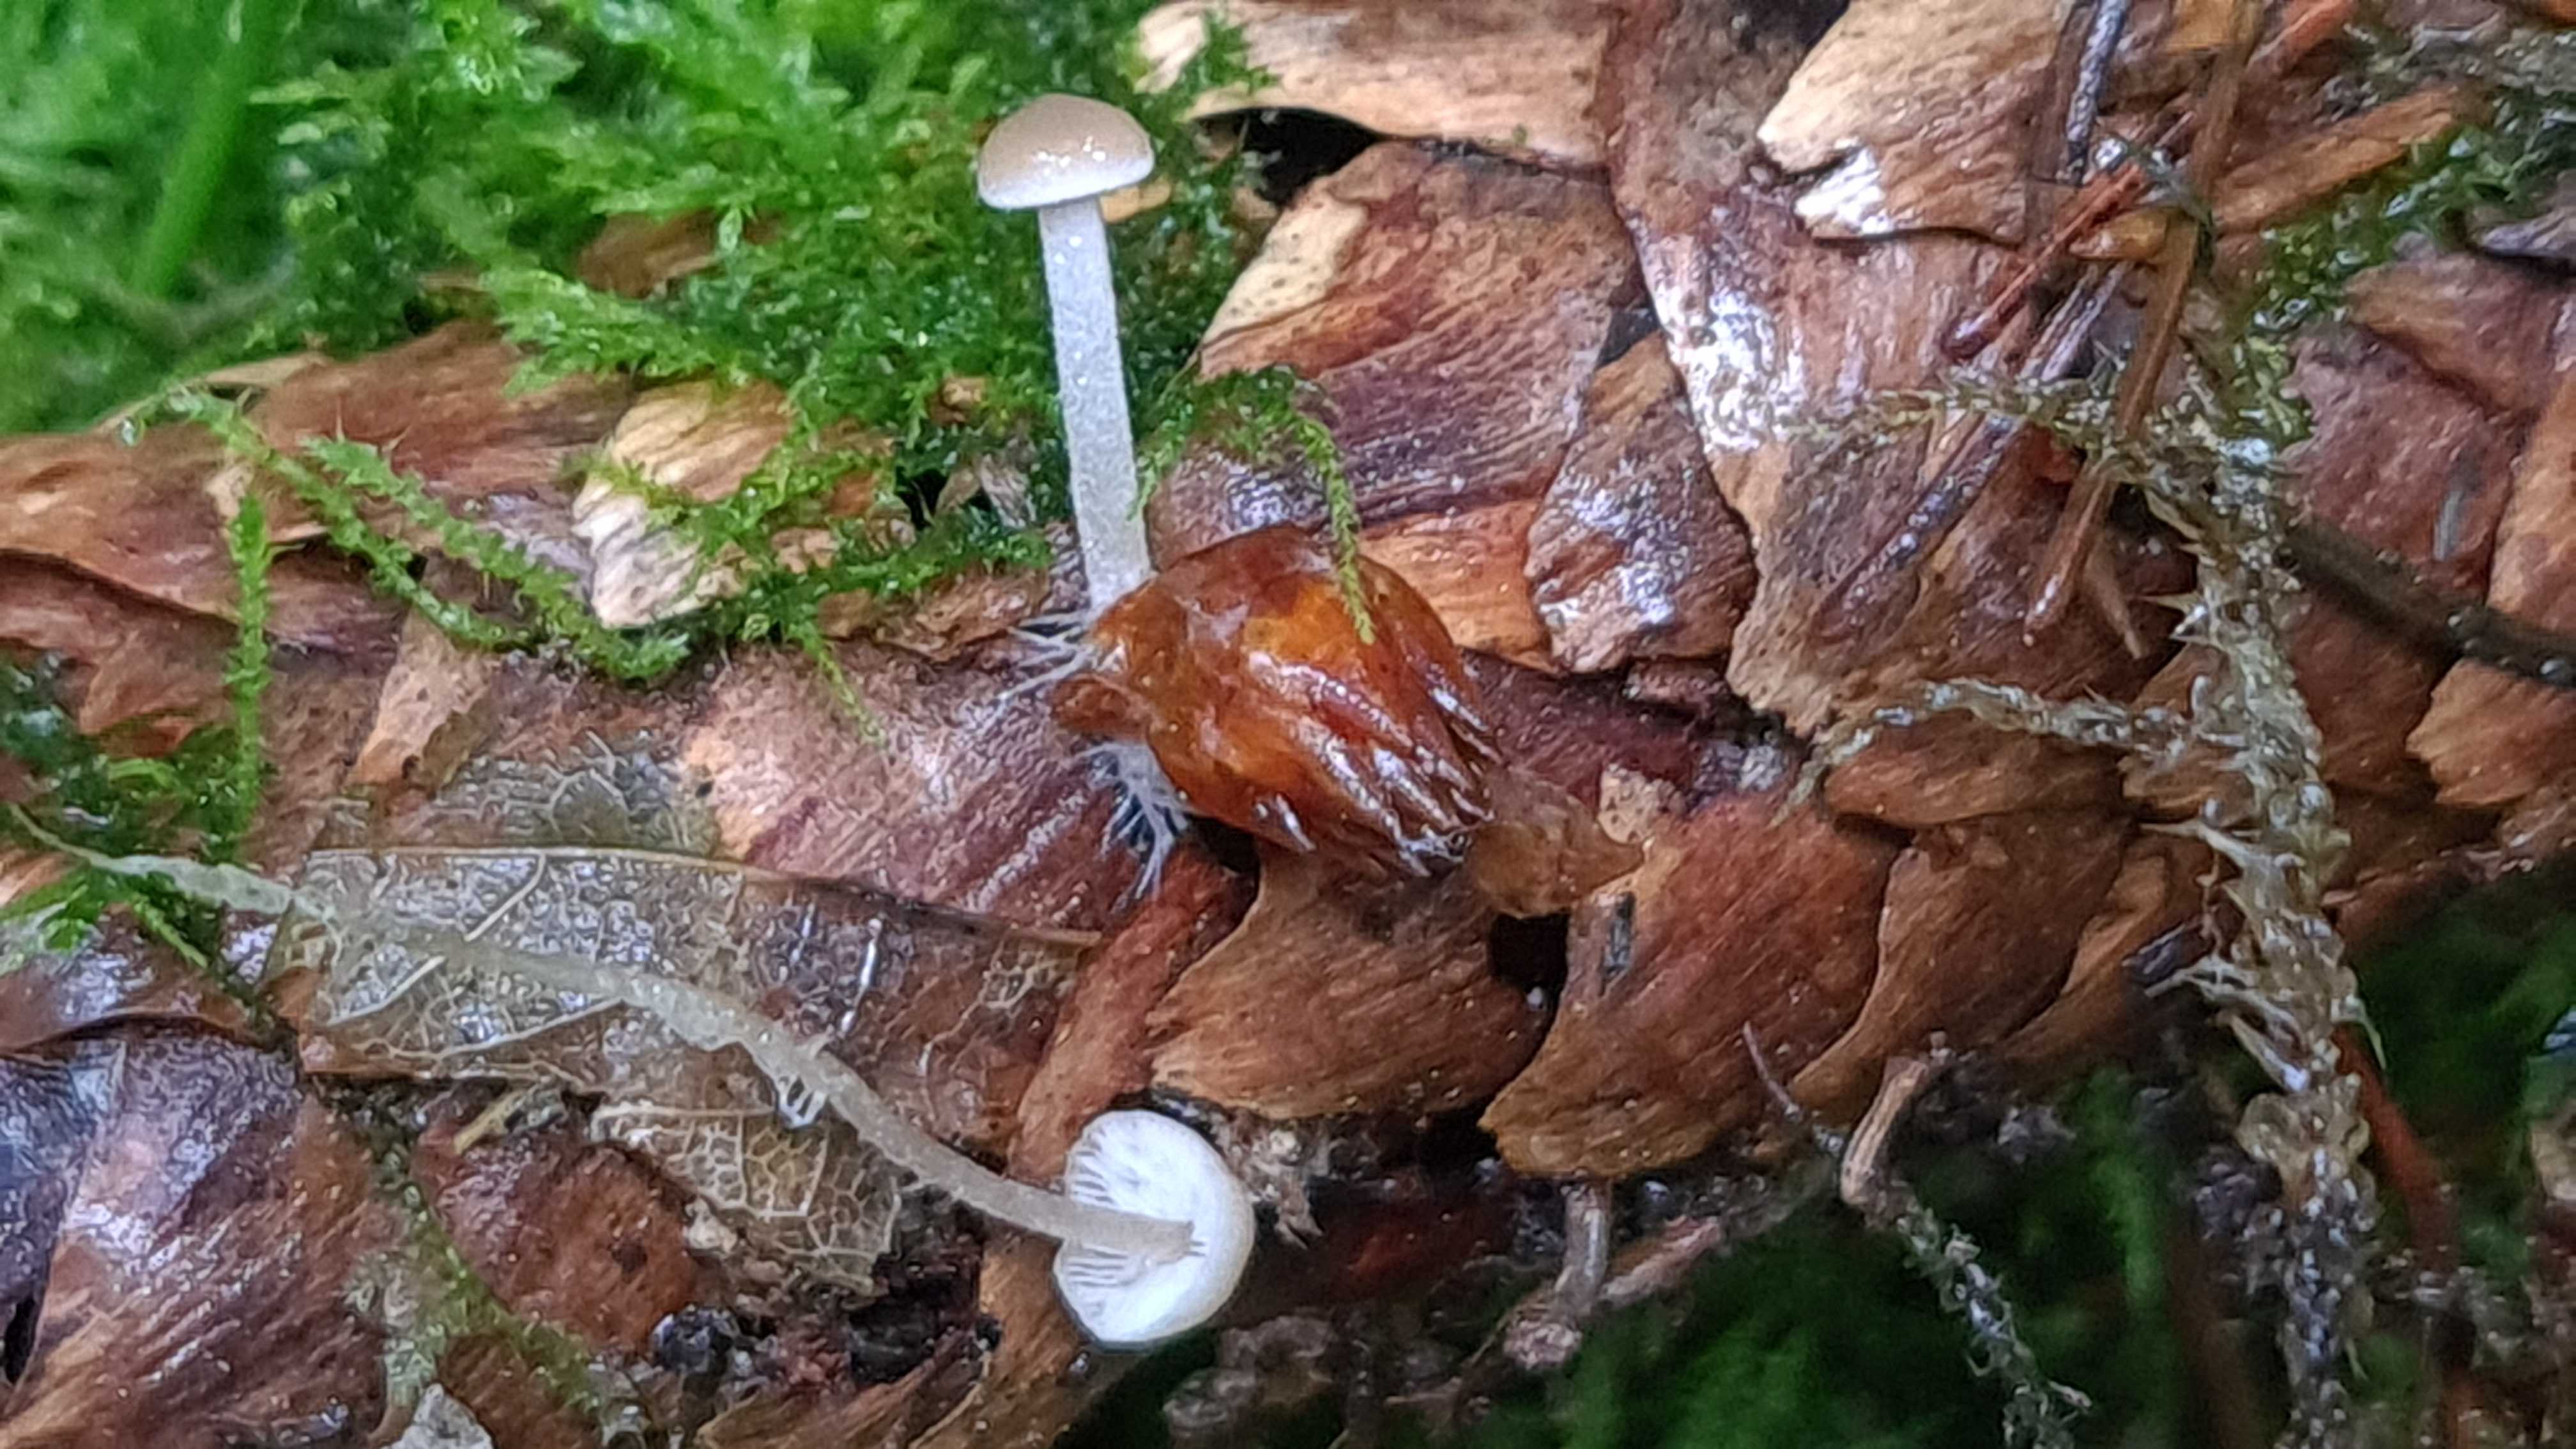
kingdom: Fungi
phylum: Basidiomycota
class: Agaricomycetes
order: Agaricales
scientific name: Agaricales
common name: champignonordenen
